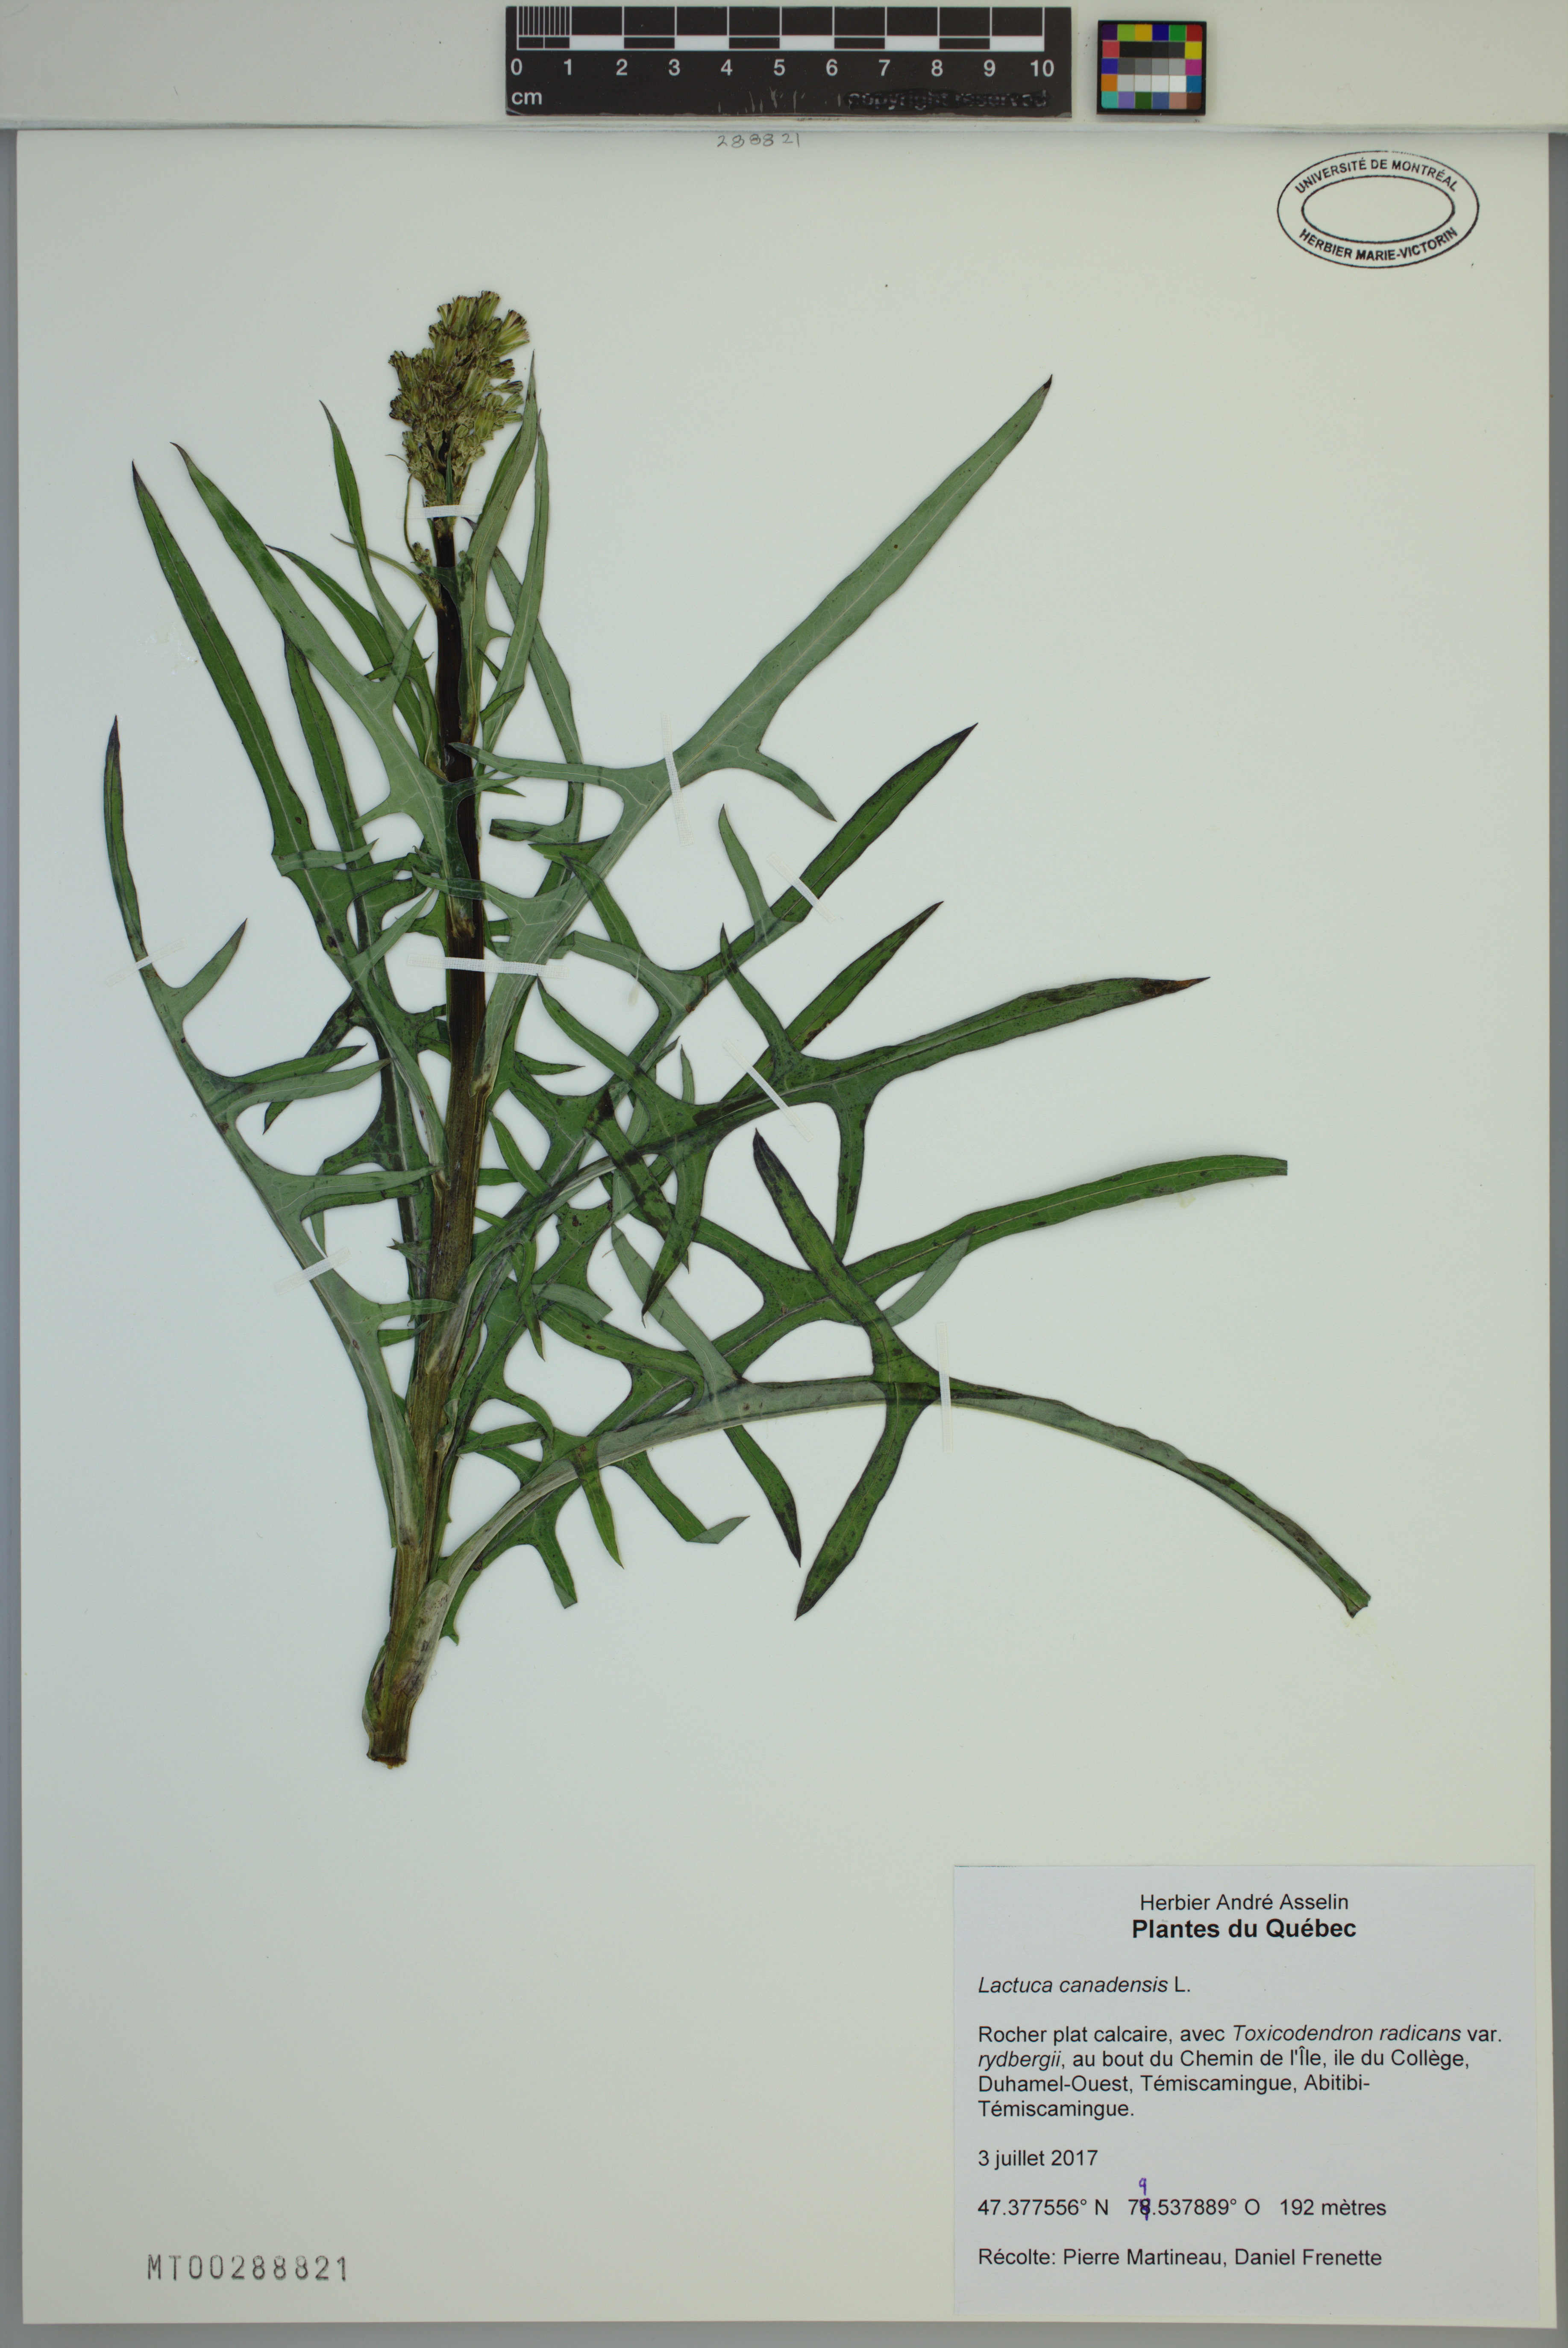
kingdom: Plantae
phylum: Tracheophyta
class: Magnoliopsida
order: Asterales
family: Asteraceae
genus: Lactuca
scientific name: Lactuca canadensis
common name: Canada lettuce
